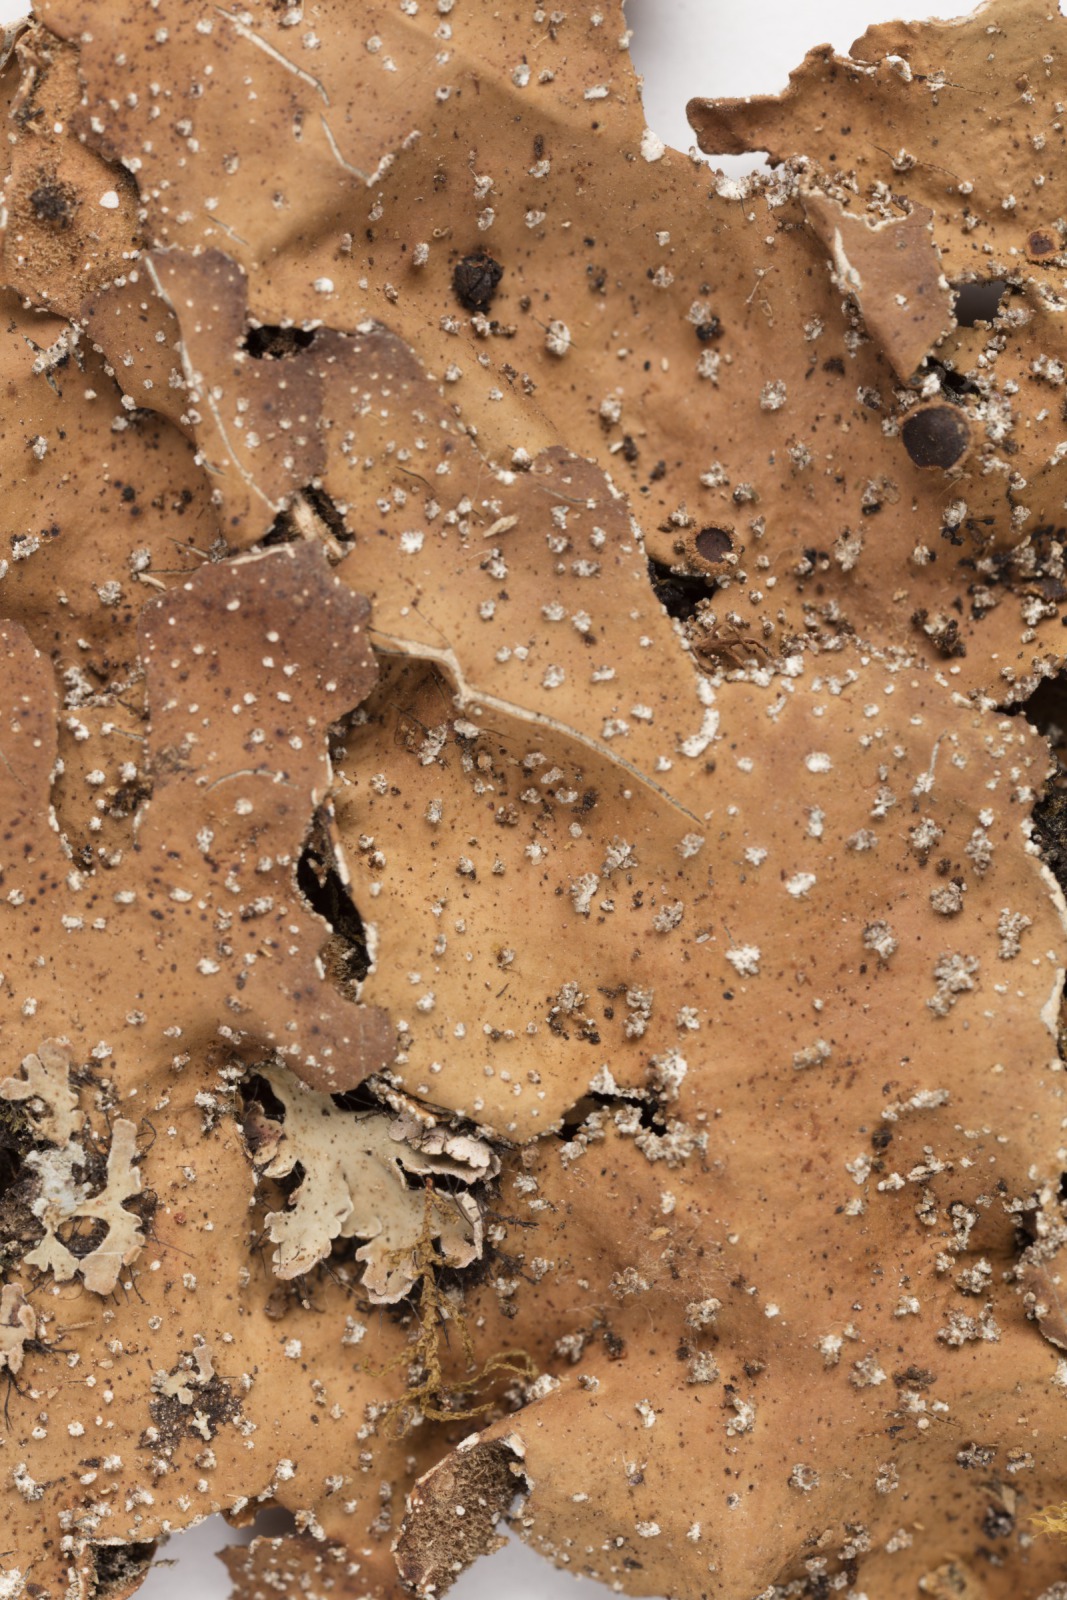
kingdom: Fungi
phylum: Ascomycota
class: Lecanoromycetes
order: Peltigerales
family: Lobariaceae
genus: Lobaria
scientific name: Lobaria anthraspis
